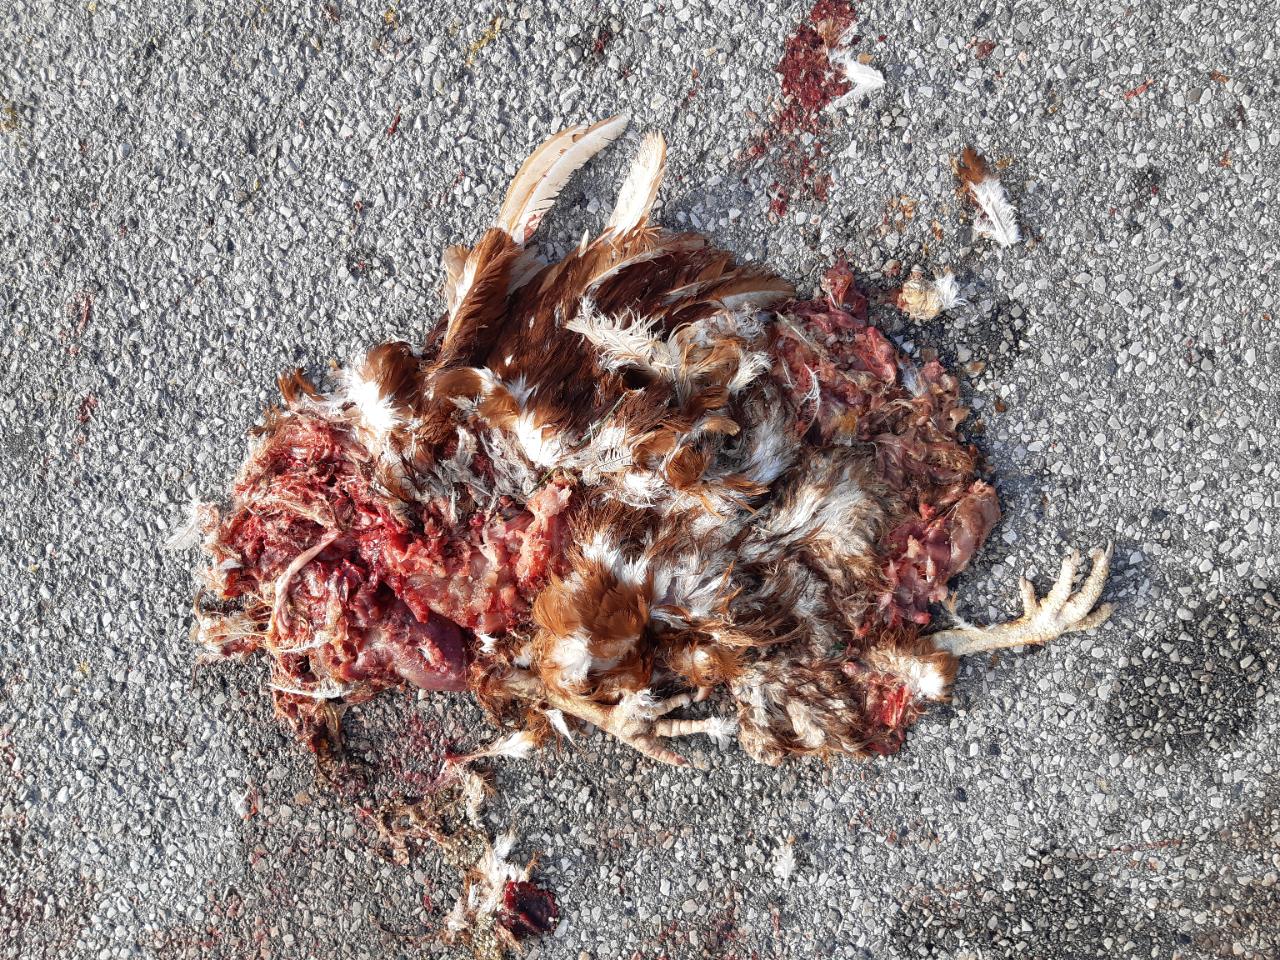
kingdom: Animalia
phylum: Chordata
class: Aves
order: Galliformes
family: Phasianidae
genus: Gallus
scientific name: Gallus gallus
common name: Red junglefowl
